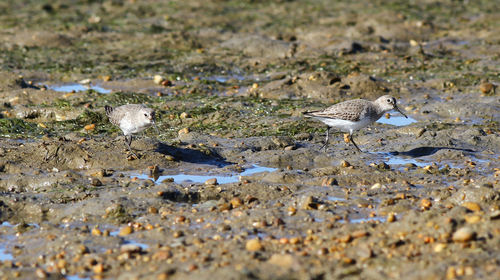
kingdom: Animalia
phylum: Chordata
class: Aves
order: Charadriiformes
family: Scolopacidae
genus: Calidris
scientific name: Calidris alpina
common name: Dunlin
